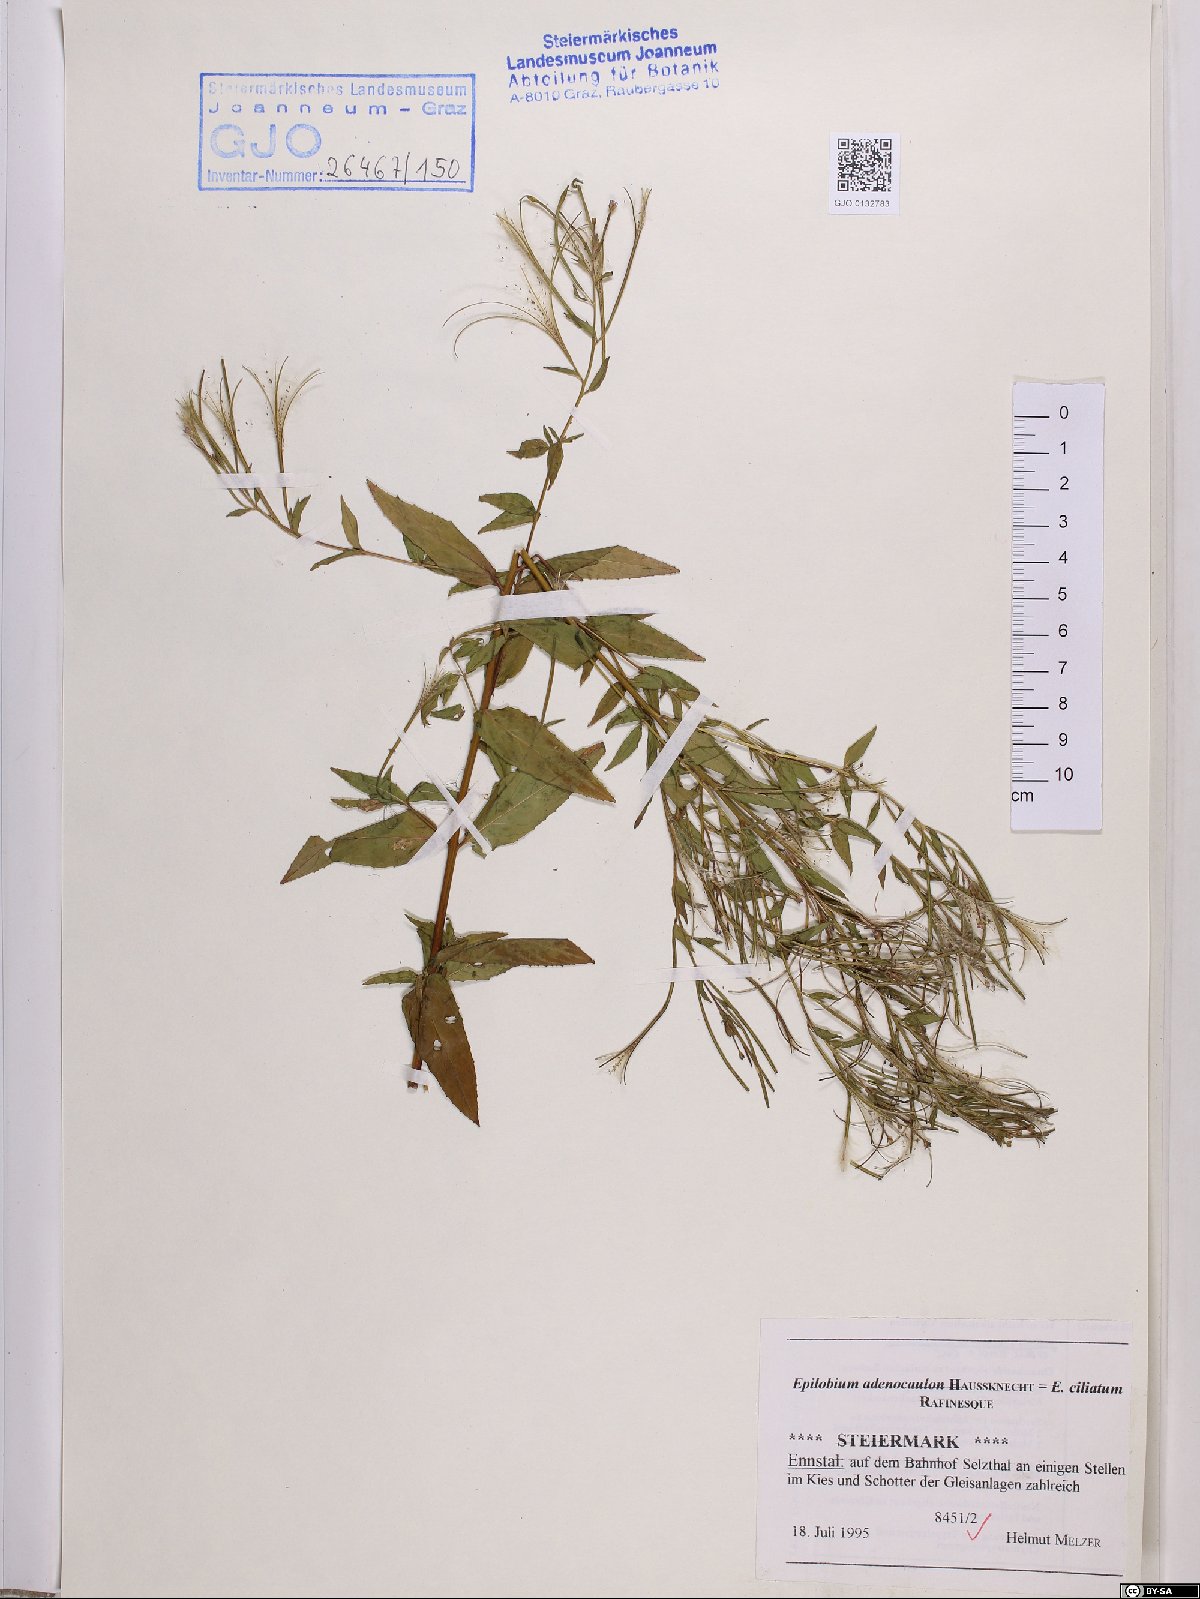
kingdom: Plantae
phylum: Tracheophyta
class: Magnoliopsida
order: Myrtales
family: Onagraceae
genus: Epilobium
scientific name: Epilobium ciliatum
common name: American willowherb
